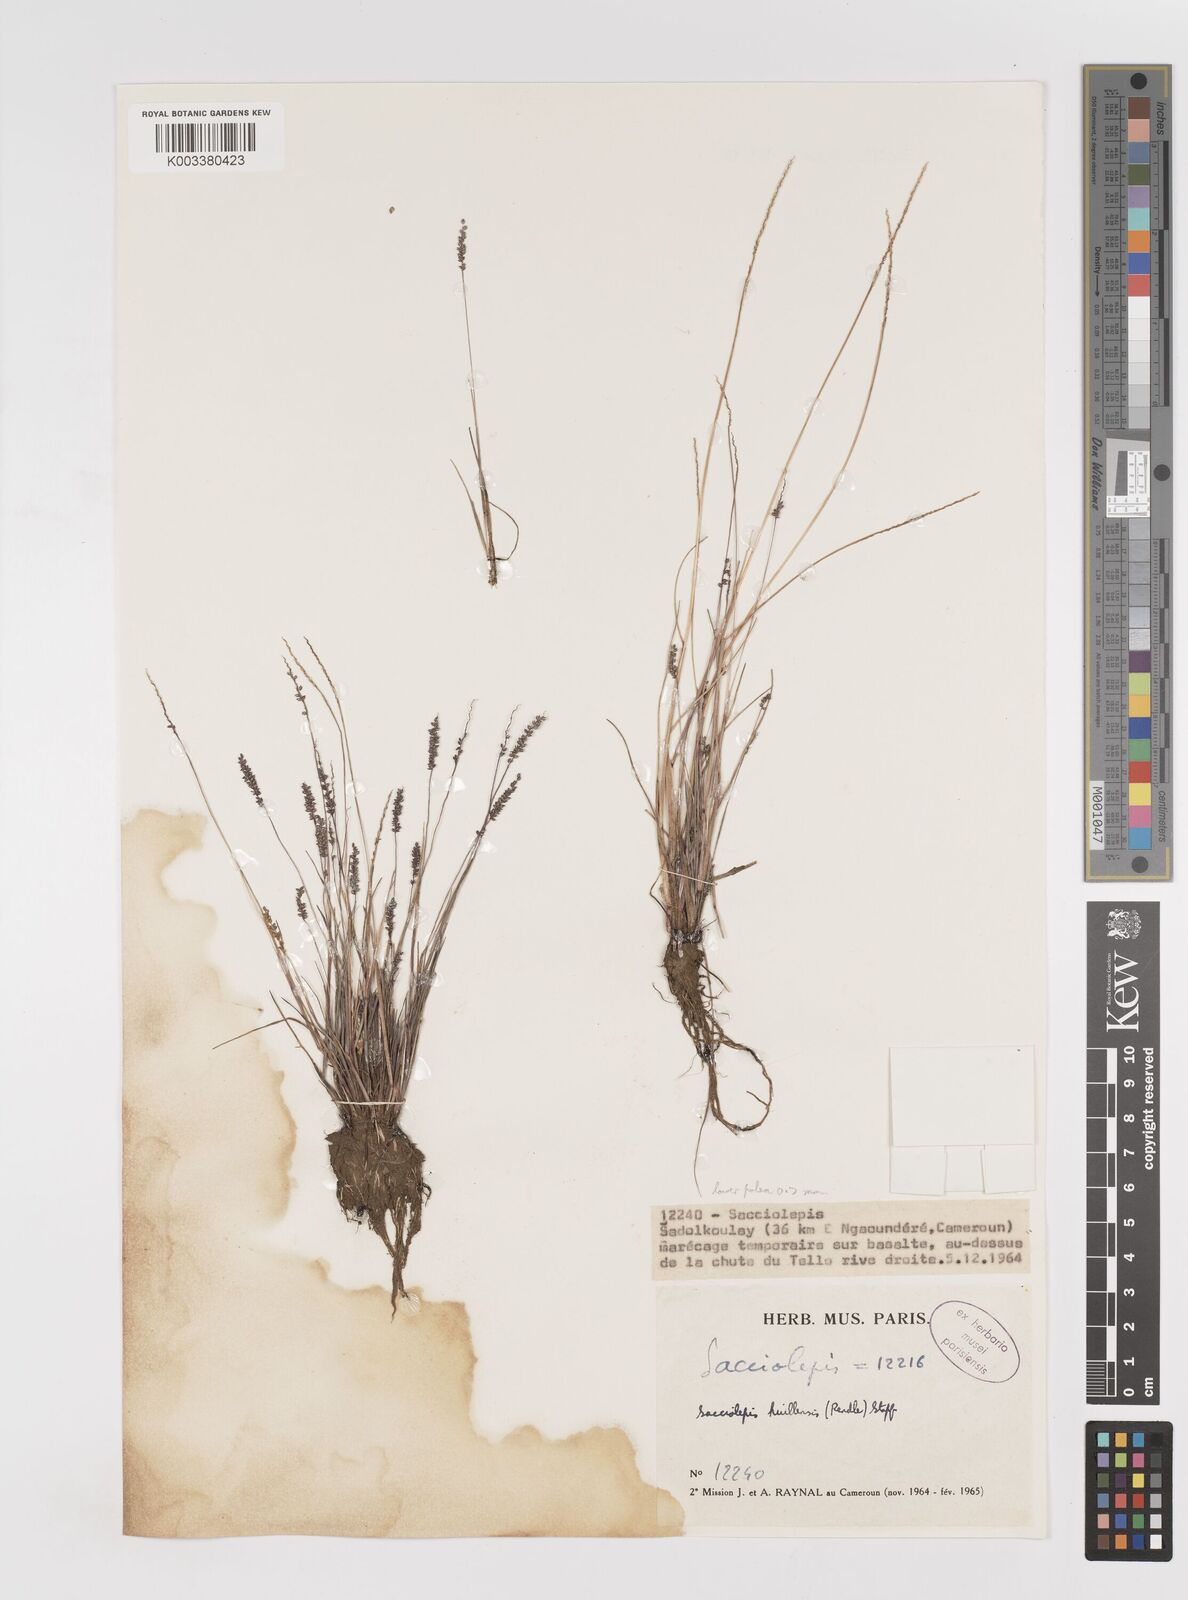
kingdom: Plantae
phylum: Tracheophyta
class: Liliopsida
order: Poales
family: Poaceae
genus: Sacciolepis
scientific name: Sacciolepis myosuroides
